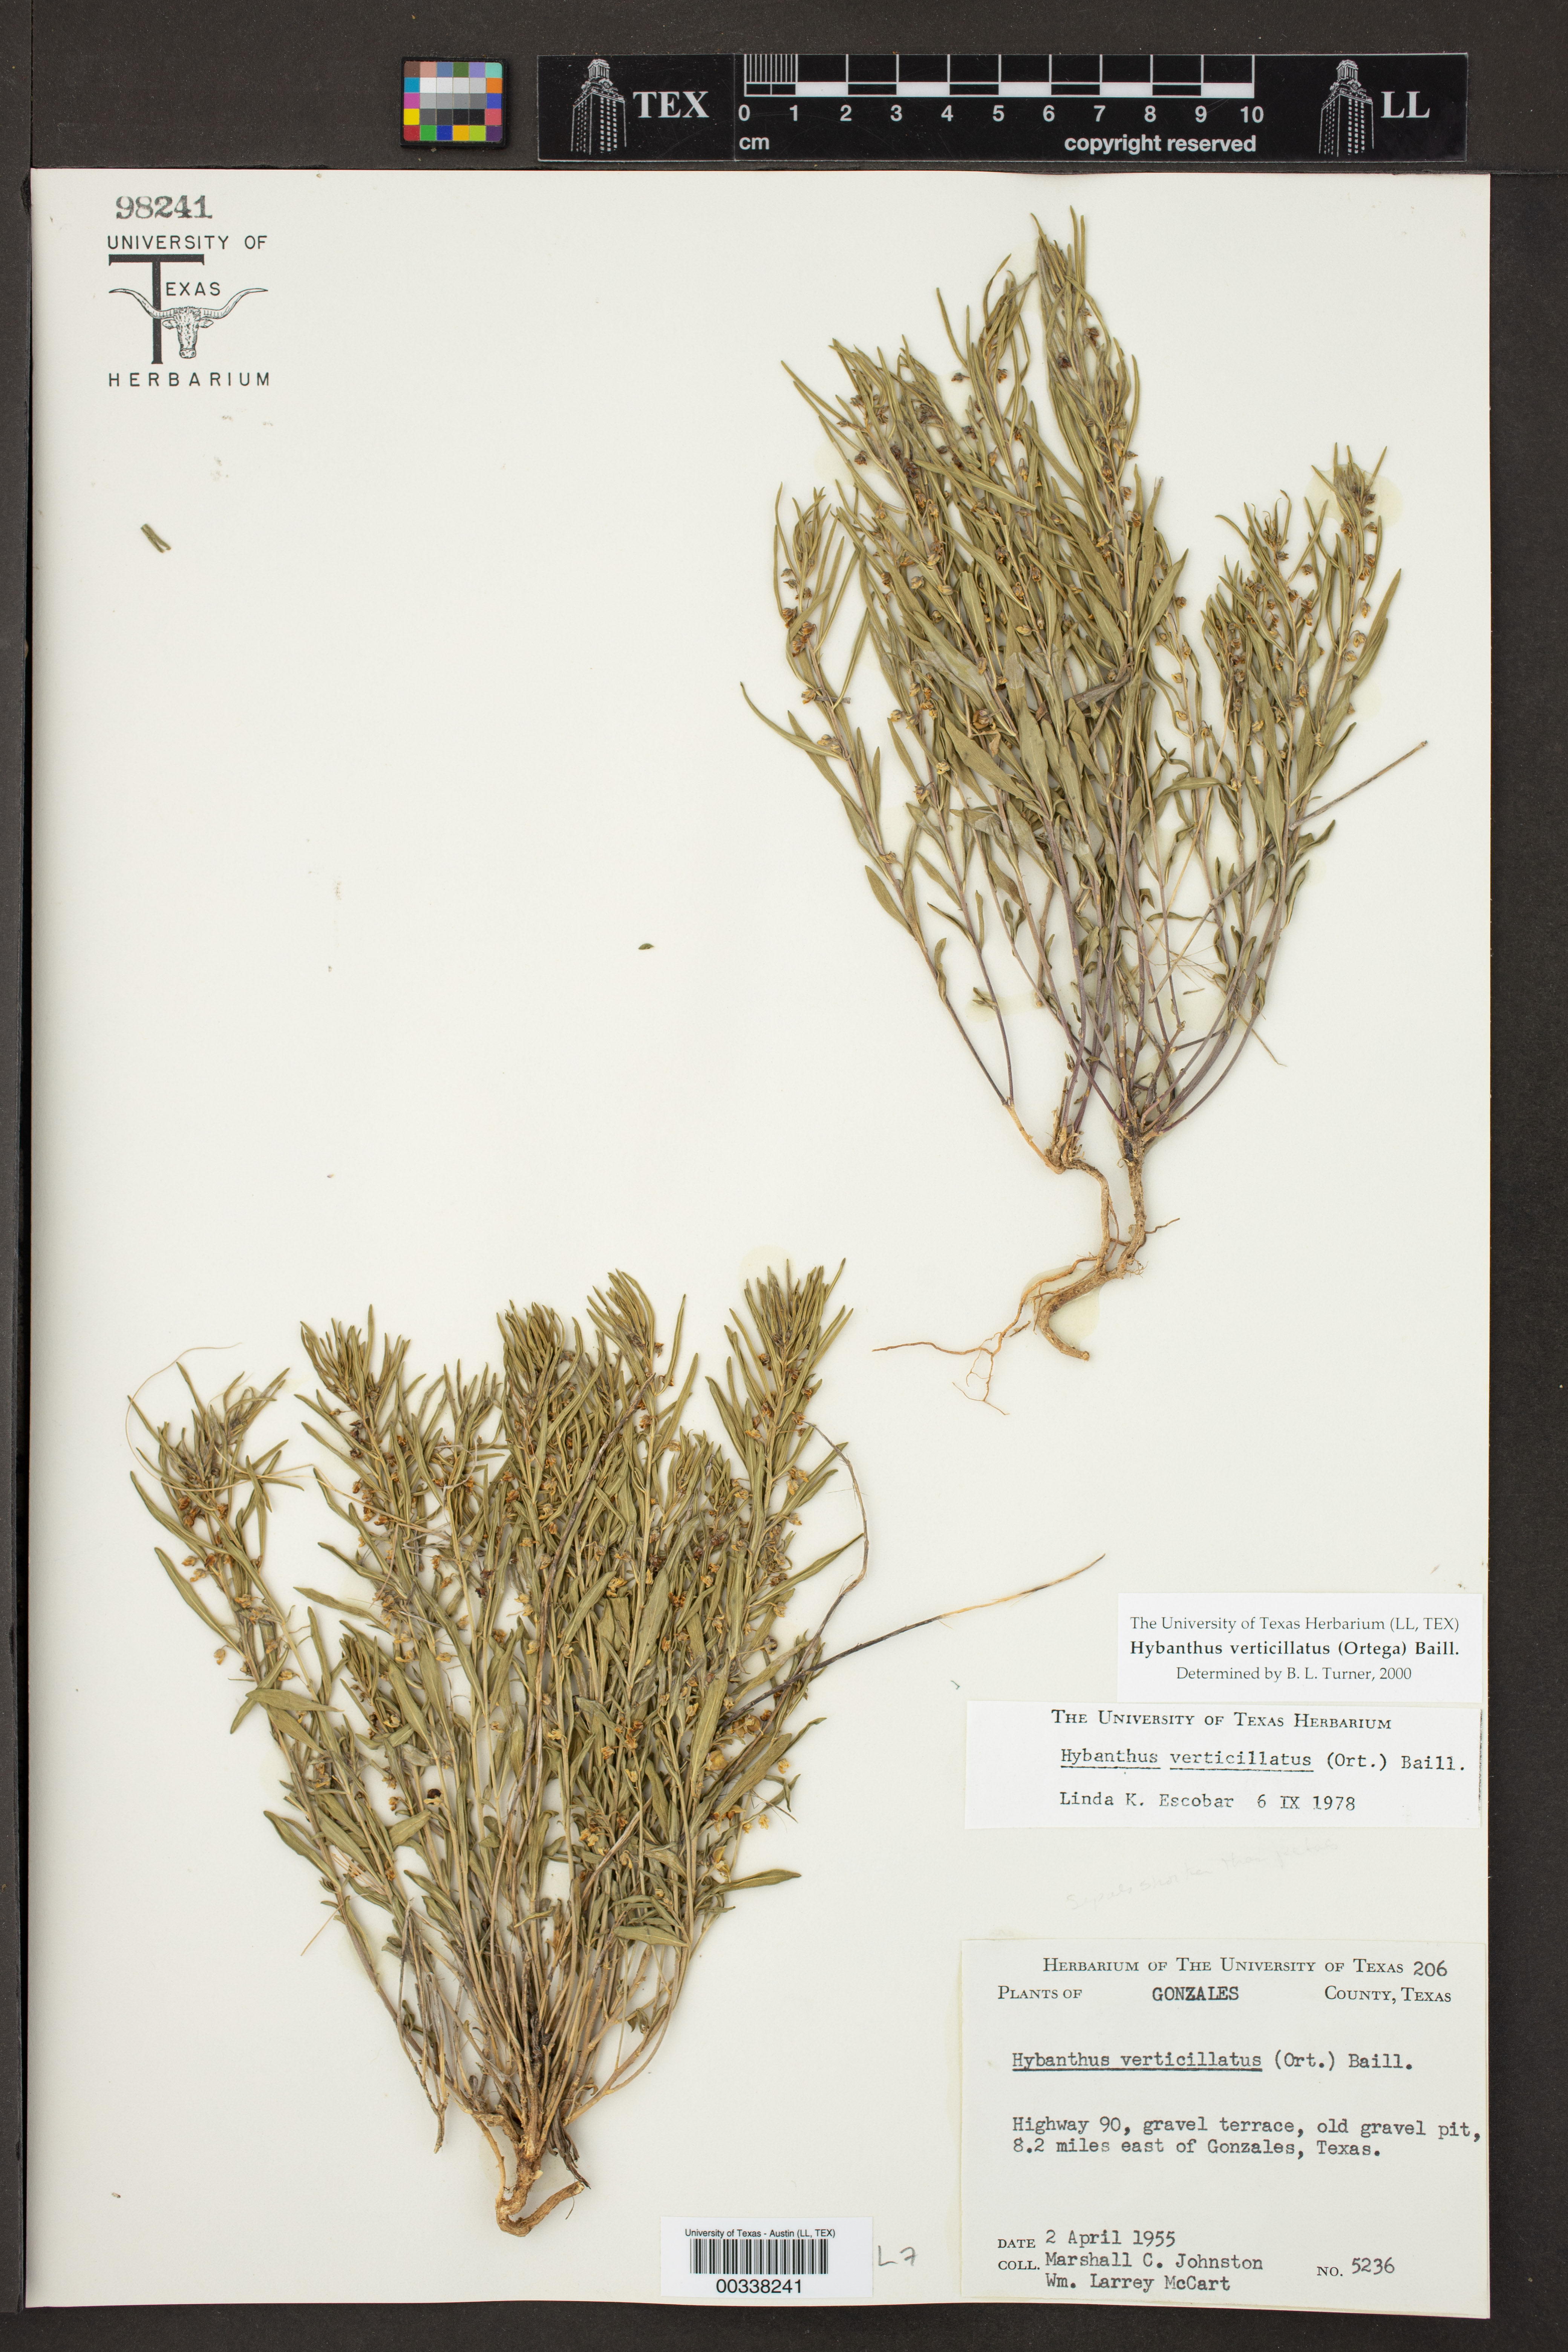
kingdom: Plantae
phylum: Tracheophyta
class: Magnoliopsida
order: Malpighiales
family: Violaceae
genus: Pombalia
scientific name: Pombalia verticillata
